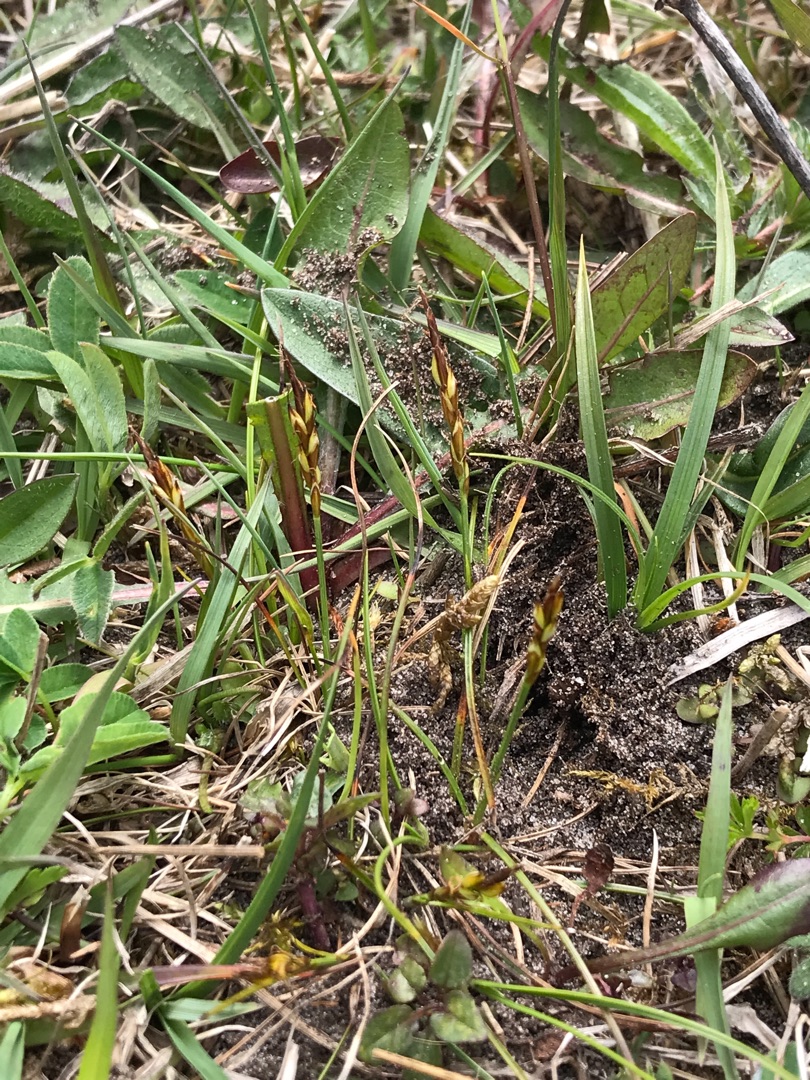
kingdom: Plantae
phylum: Tracheophyta
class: Liliopsida
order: Poales
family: Cyperaceae
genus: Carex
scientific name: Carex pulicaris
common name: Loppe-star
